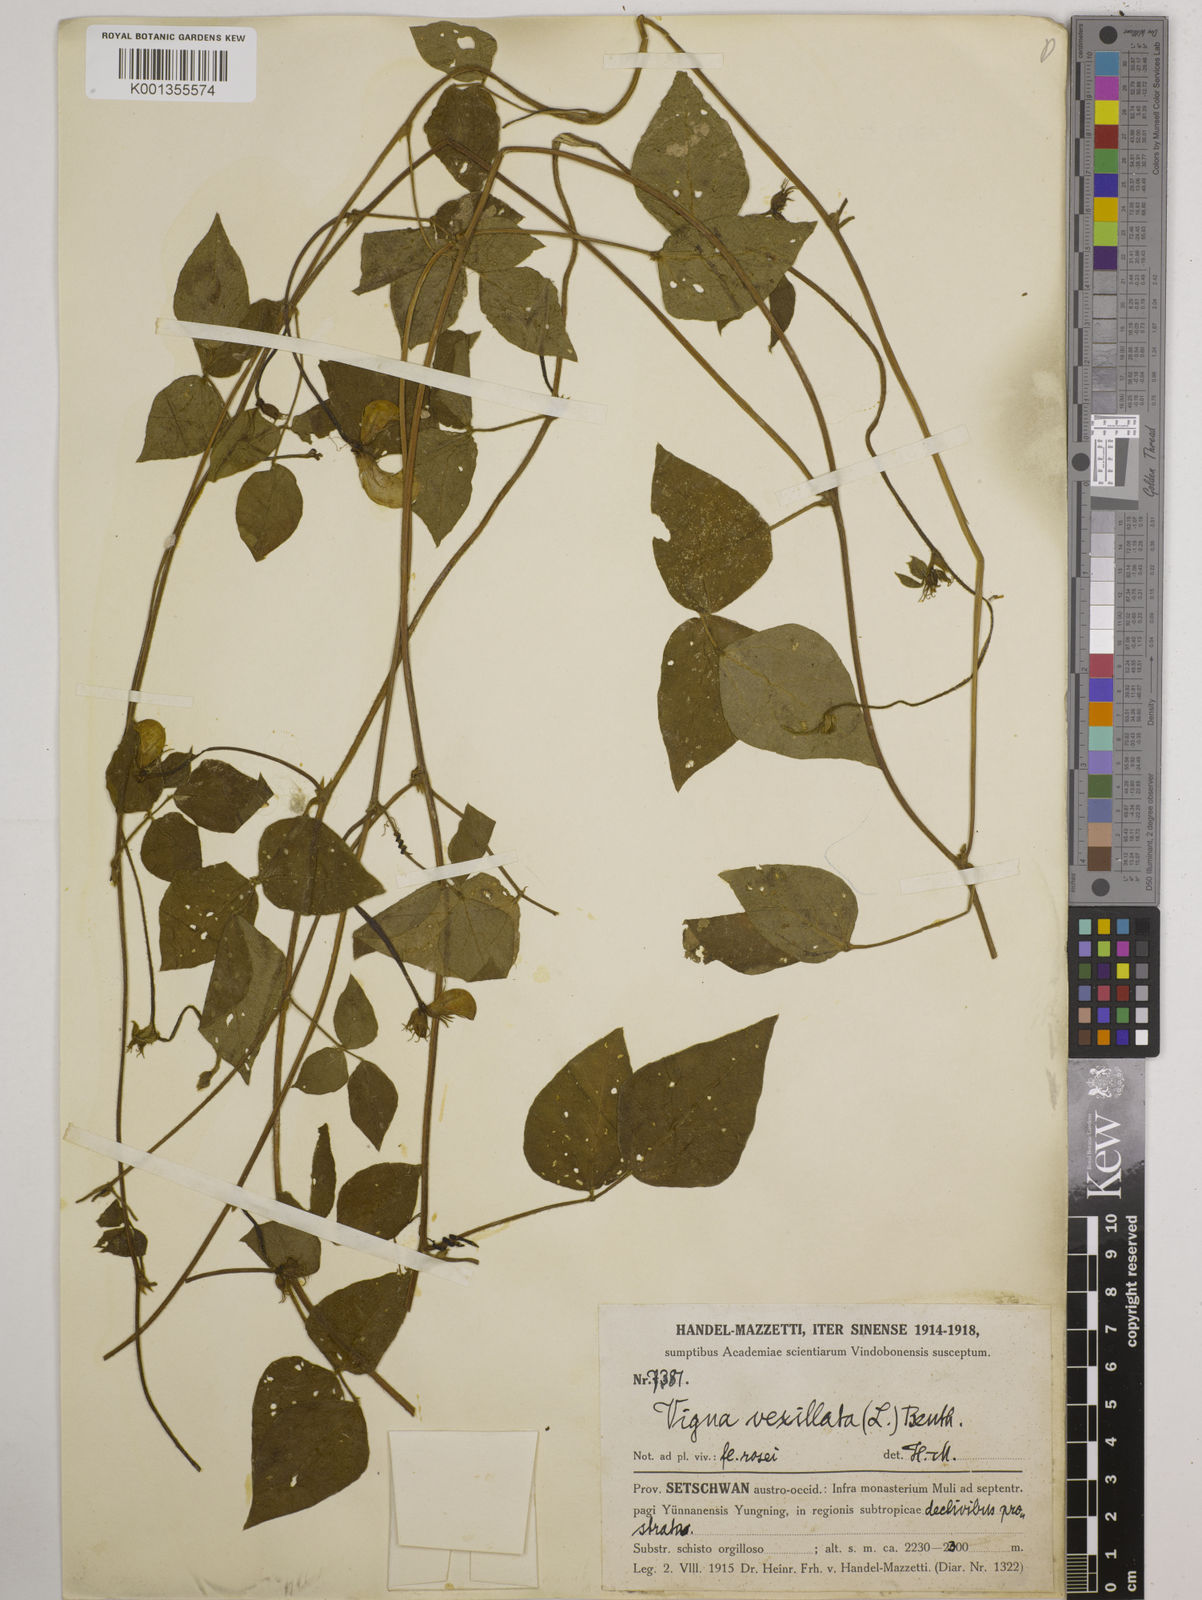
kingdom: Plantae
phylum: Tracheophyta
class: Magnoliopsida
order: Fabales
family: Fabaceae
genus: Vigna
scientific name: Vigna vexillata
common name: Zombi pea
